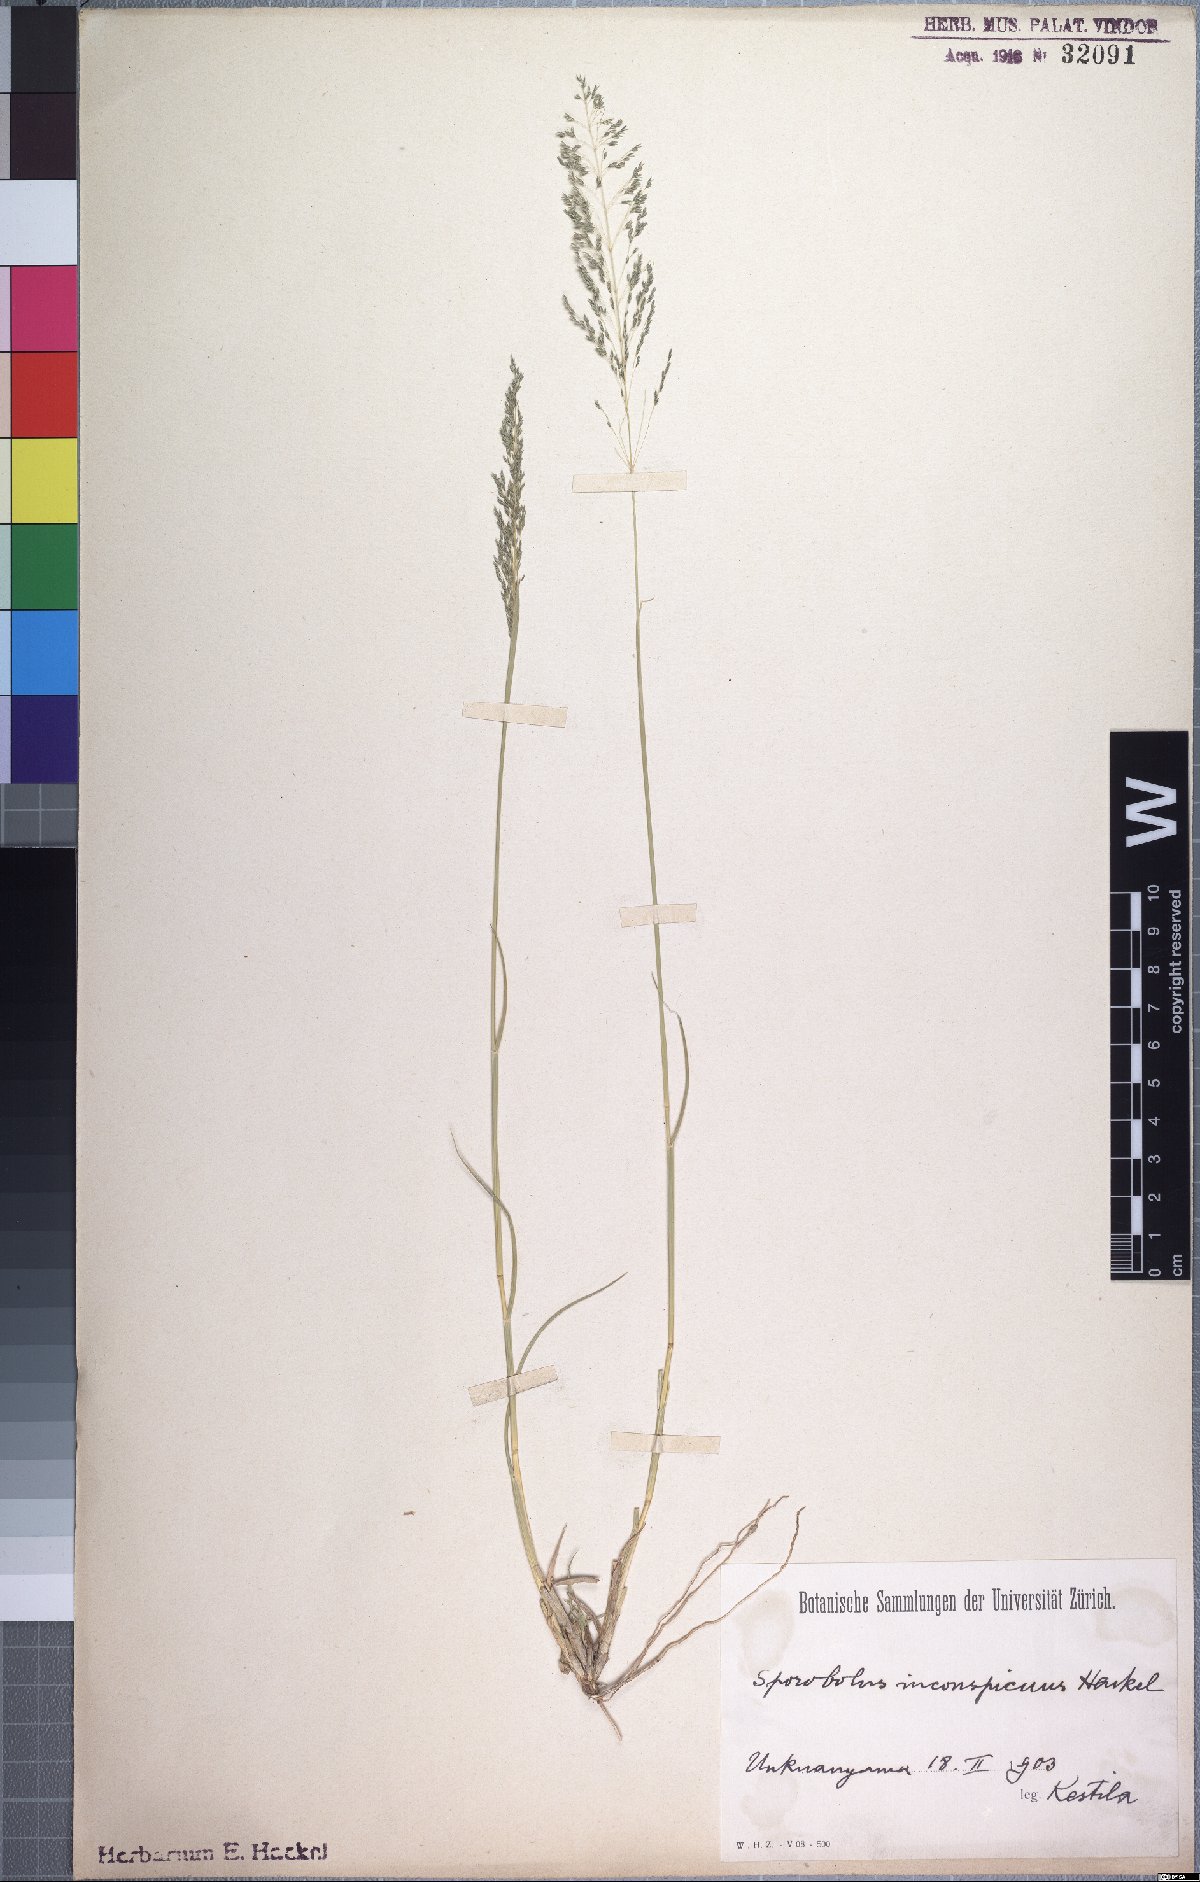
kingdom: Plantae
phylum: Tracheophyta
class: Liliopsida
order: Poales
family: Poaceae
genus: Sporobolus
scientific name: Sporobolus ioclados
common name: Pan dropseed
